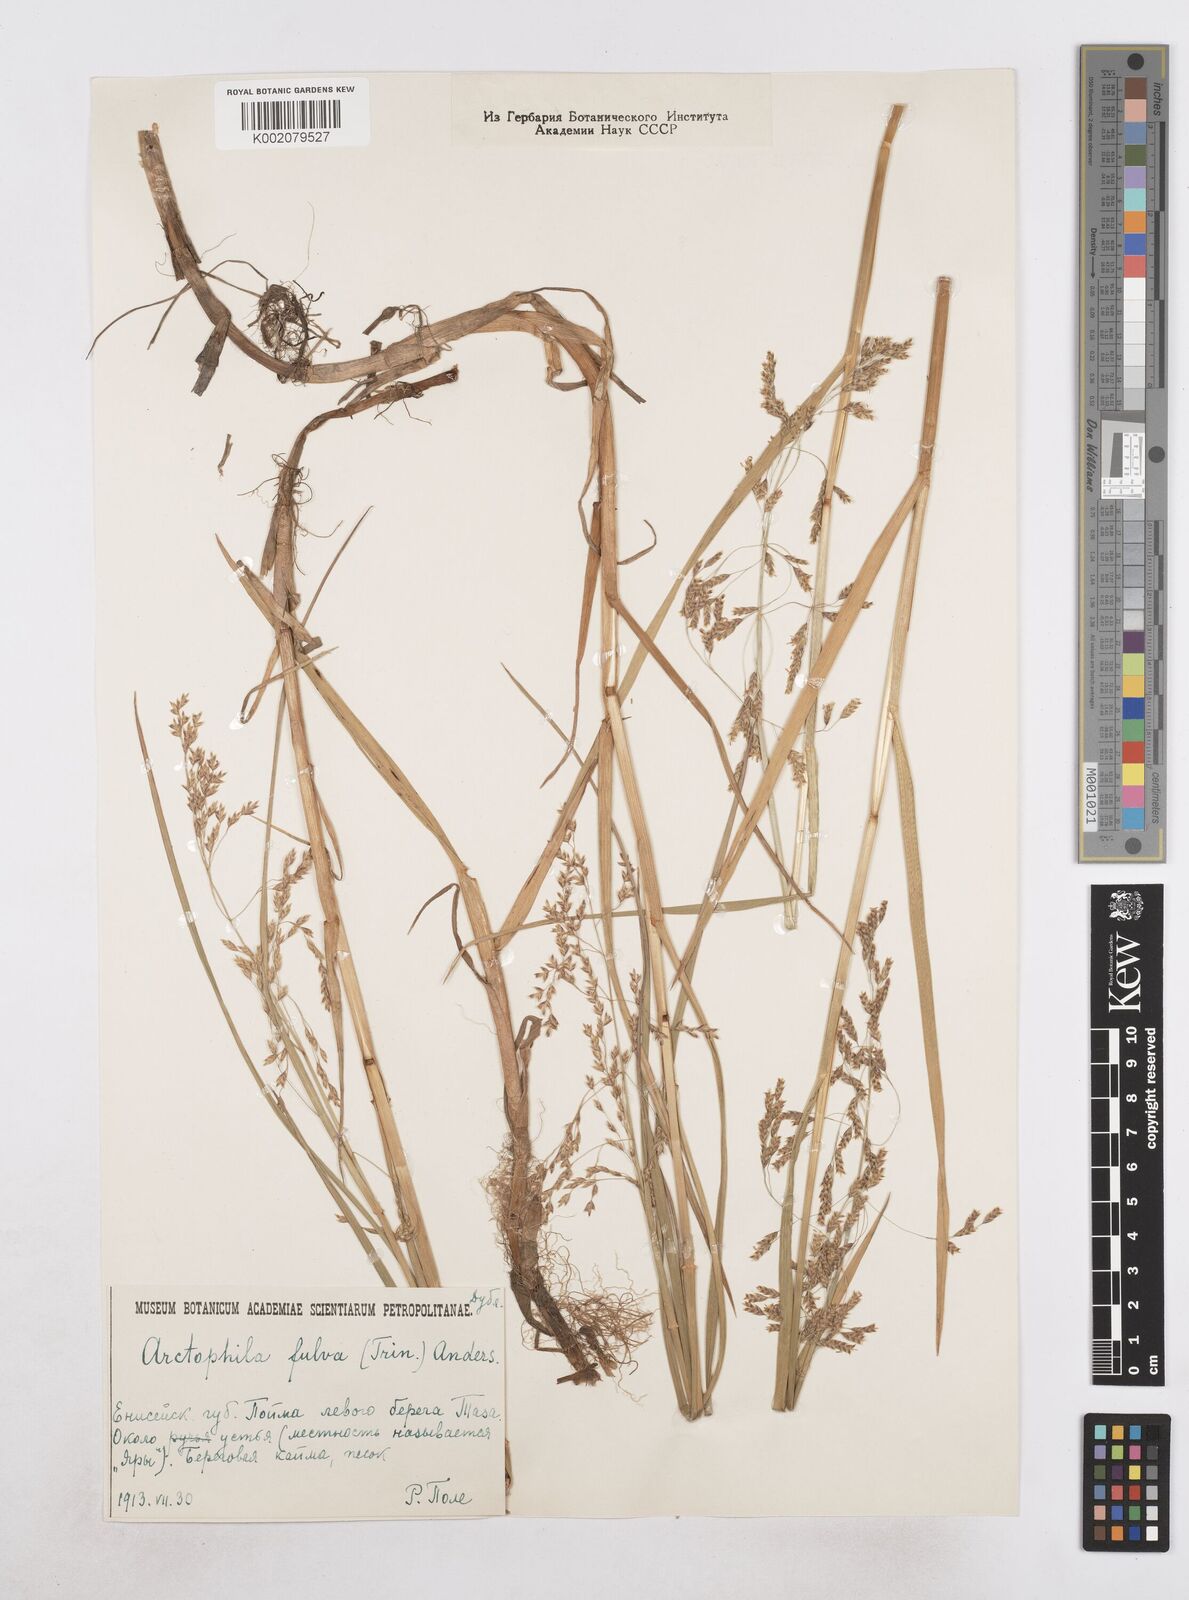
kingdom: Plantae
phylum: Tracheophyta
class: Liliopsida
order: Poales
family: Poaceae
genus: Dupontia
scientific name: Dupontia fulva
